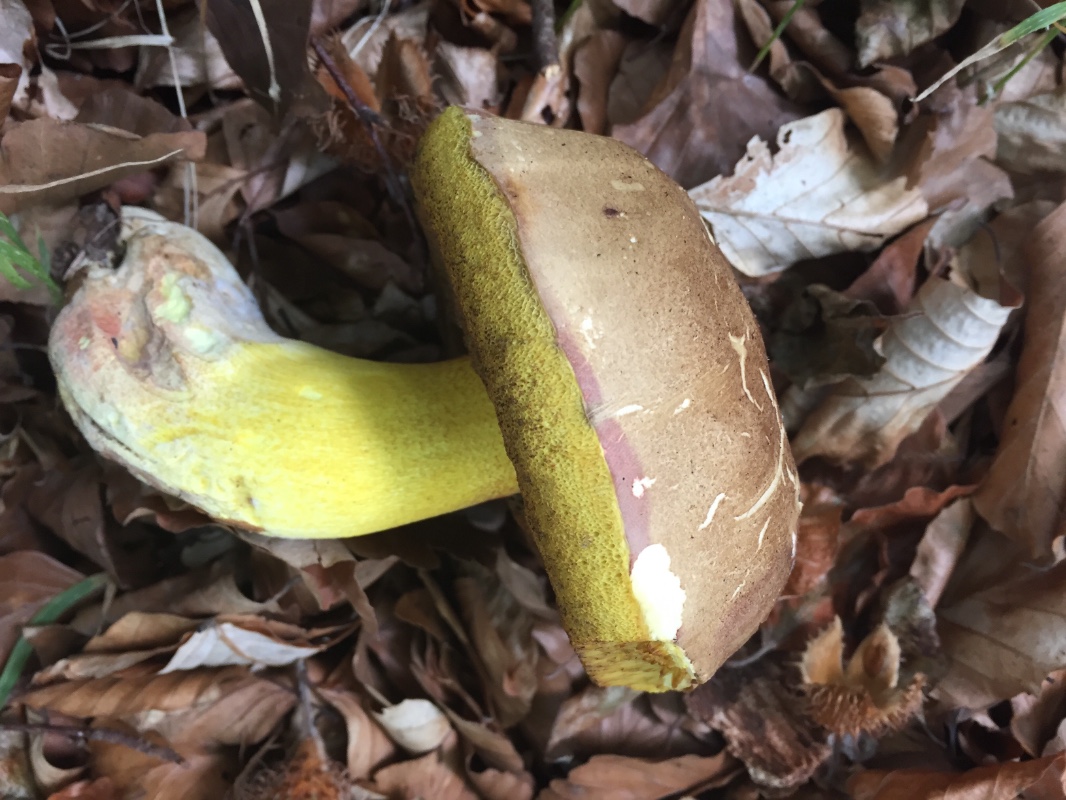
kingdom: Fungi
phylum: Basidiomycota
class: Agaricomycetes
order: Boletales
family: Boletaceae
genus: Butyriboletus
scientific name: Butyriboletus fuscoroseus
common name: brunrosa rørhat
